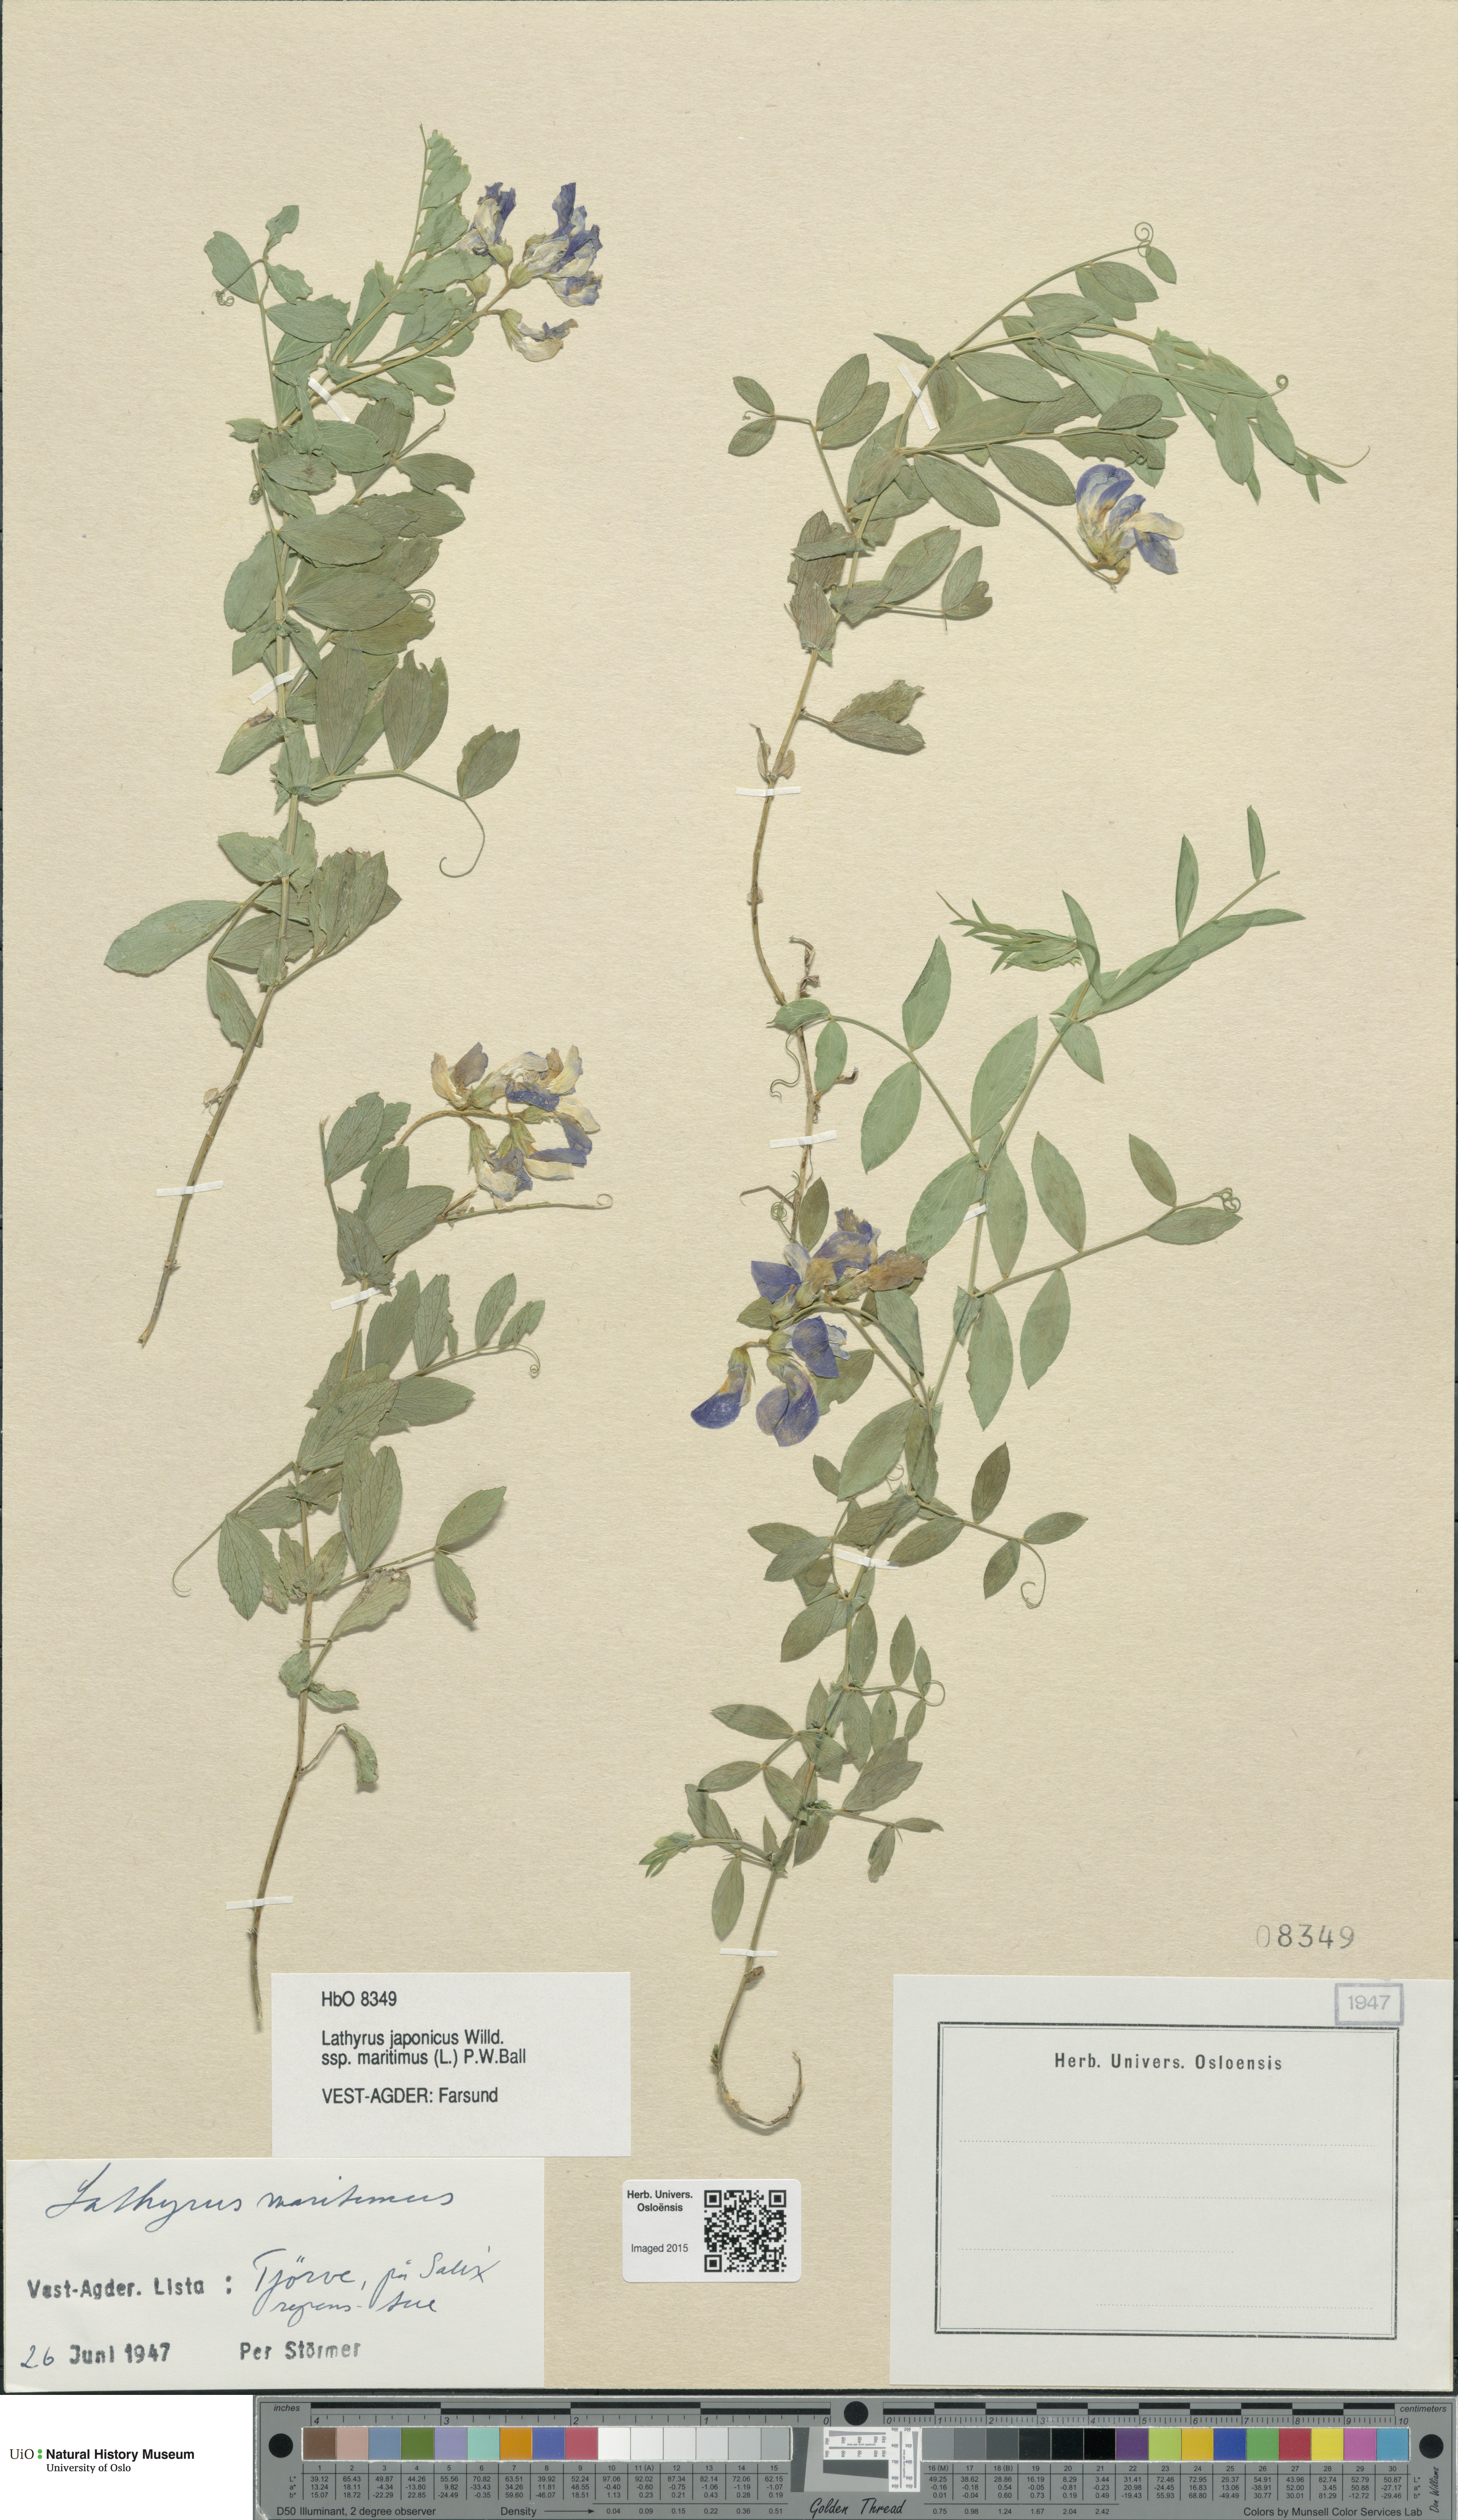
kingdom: Plantae
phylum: Tracheophyta
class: Magnoliopsida
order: Fabales
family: Fabaceae
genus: Lathyrus
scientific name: Lathyrus japonicus
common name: Sea pea
